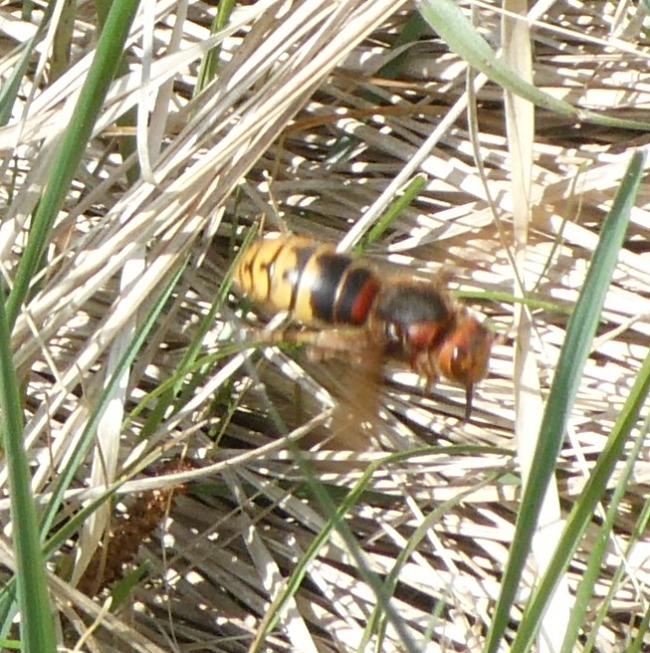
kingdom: Animalia
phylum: Arthropoda
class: Insecta
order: Hymenoptera
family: Vespidae
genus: Vespa
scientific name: Vespa crabro
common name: Stor gedehams
